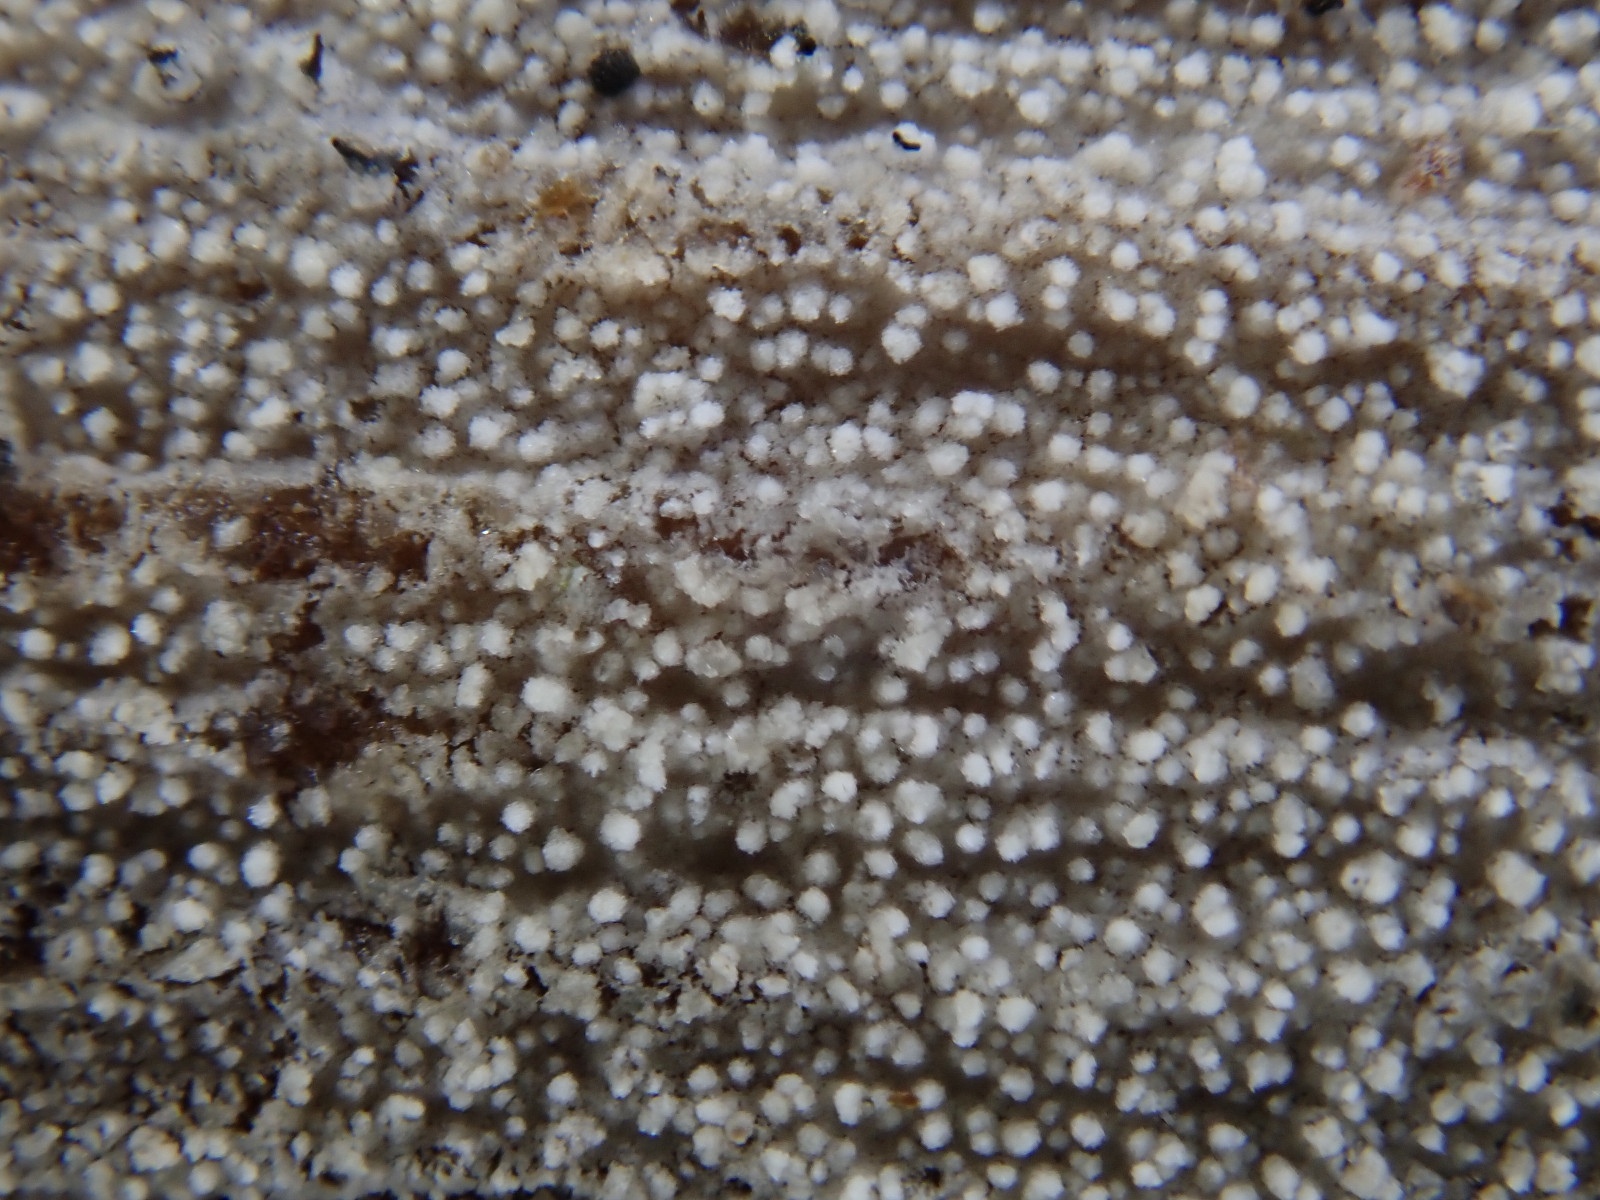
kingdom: Fungi
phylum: Basidiomycota
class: Agaricomycetes
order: Trechisporales
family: Hydnodontaceae
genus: Brevicellicium
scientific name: Brevicellicium olivascens
